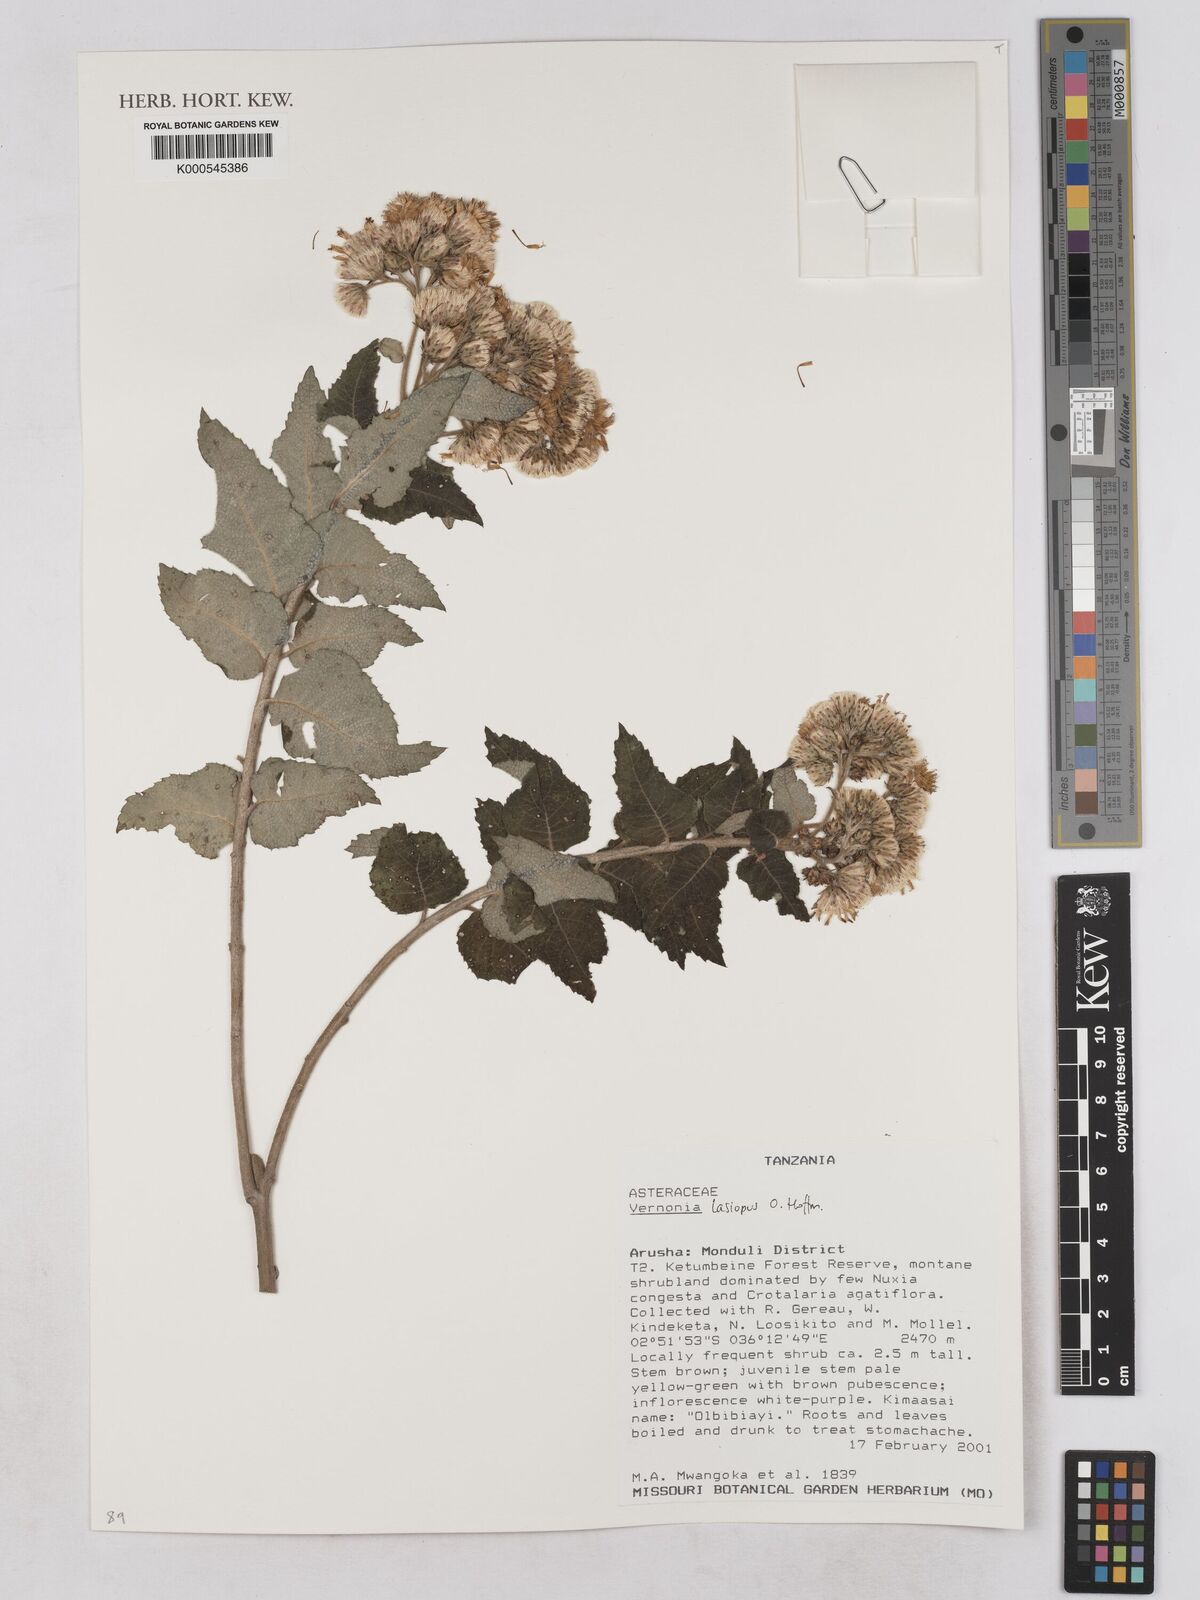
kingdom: Plantae
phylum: Tracheophyta
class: Magnoliopsida
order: Asterales
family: Asteraceae
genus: Baccharoides
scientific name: Baccharoides lasiopus
